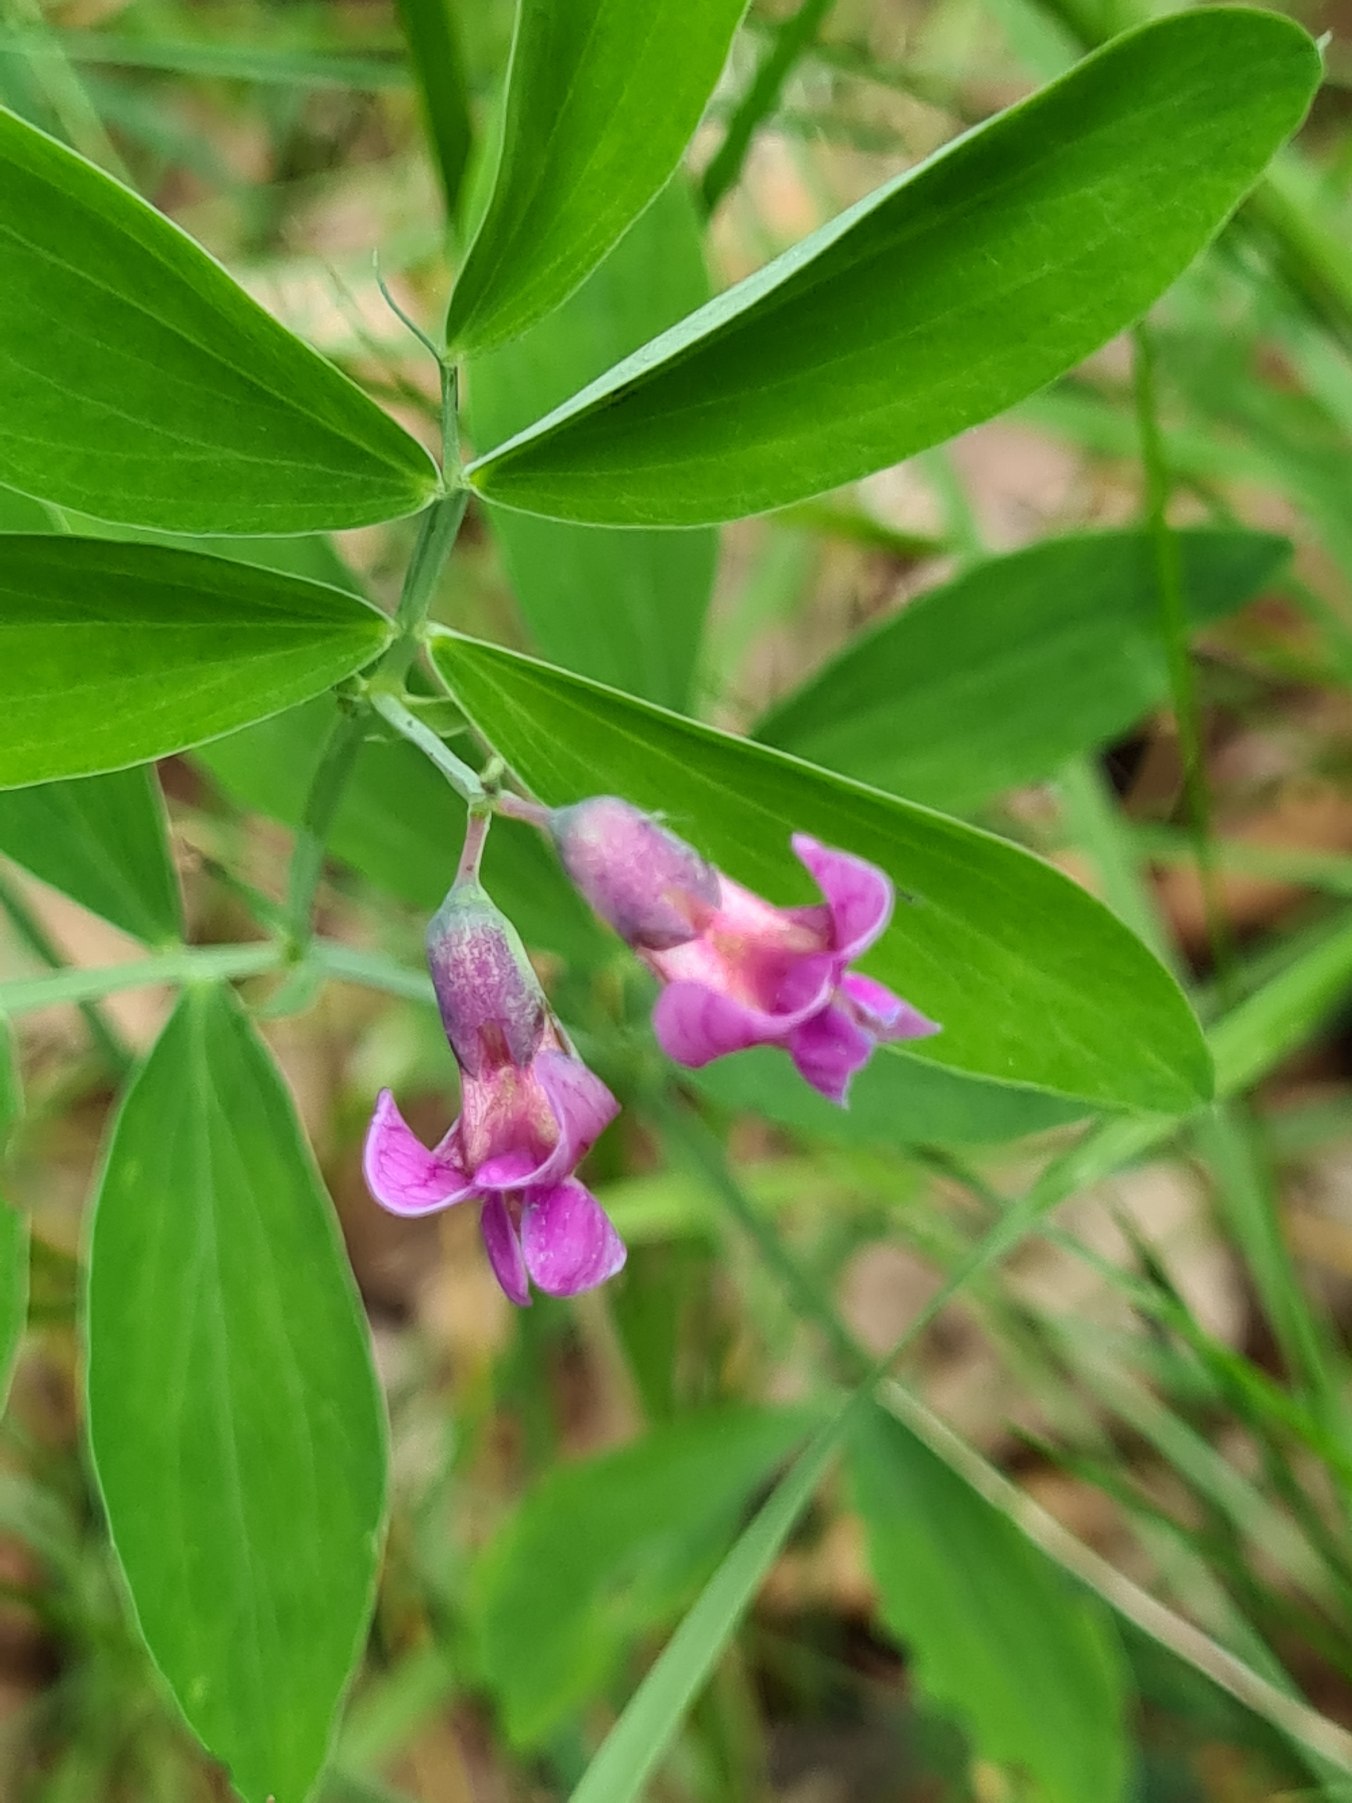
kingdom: Plantae
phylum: Tracheophyta
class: Magnoliopsida
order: Fabales
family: Fabaceae
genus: Lathyrus
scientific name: Lathyrus linifolius
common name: Krat-fladbælg
